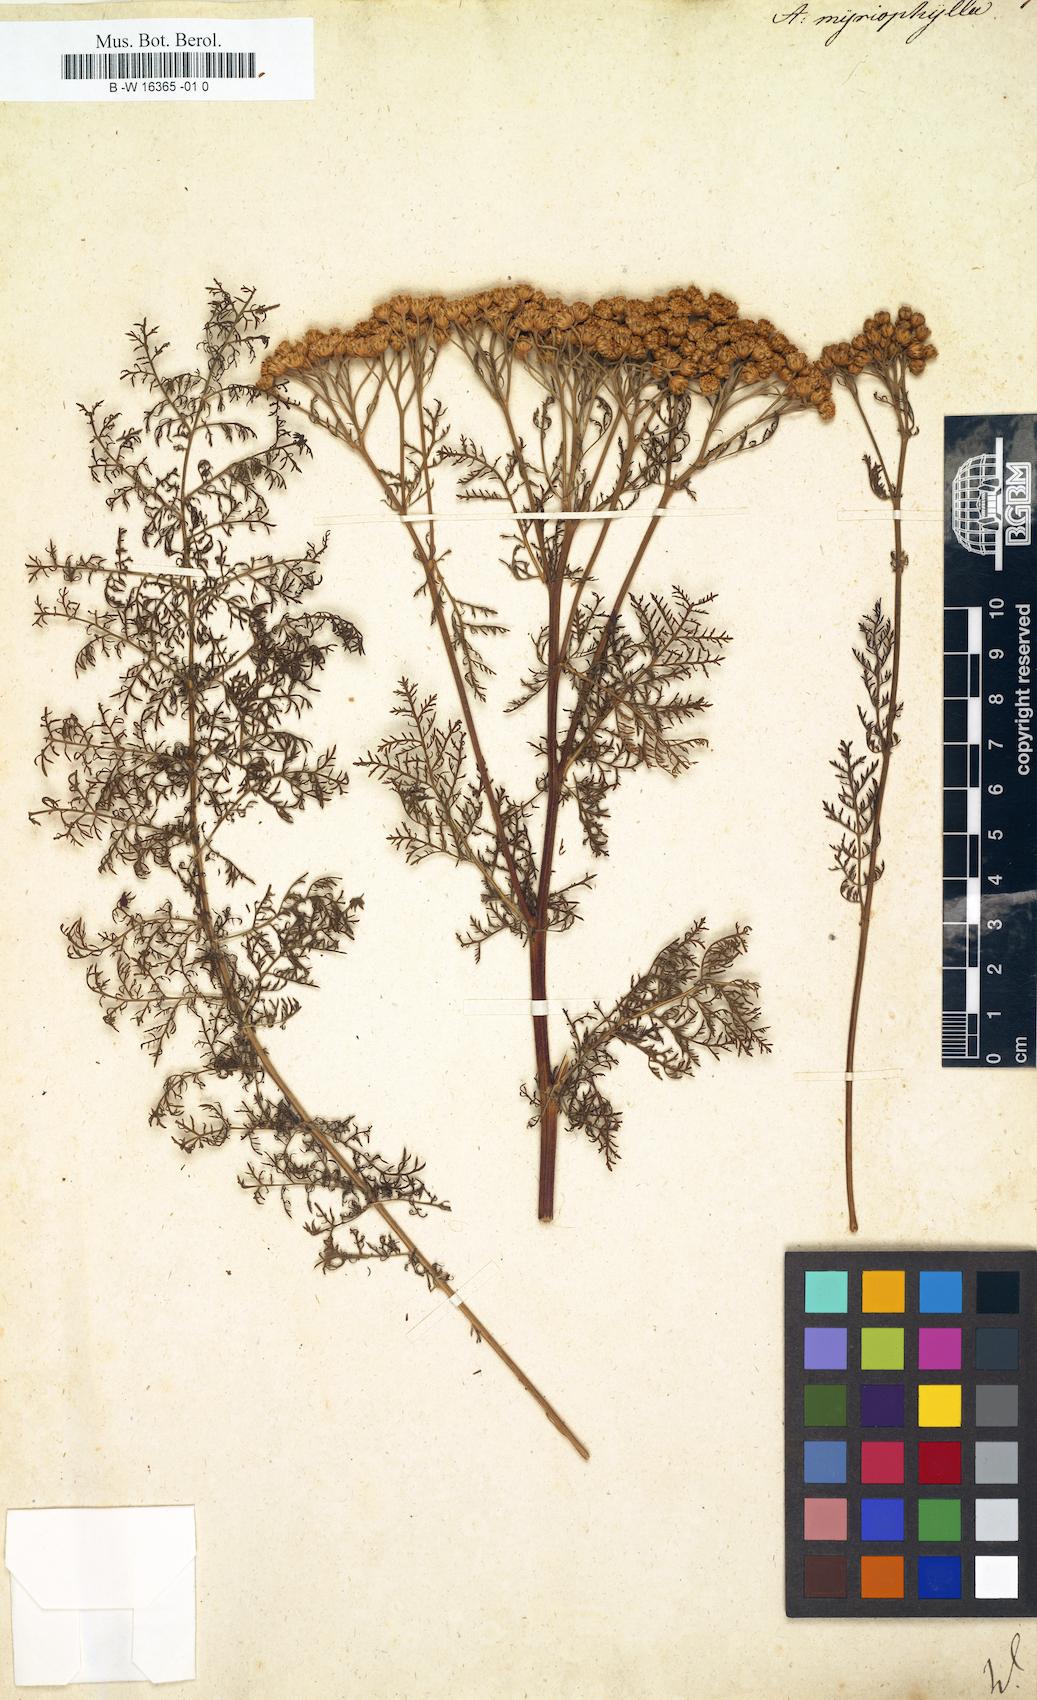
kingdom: Plantae
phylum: Tracheophyta
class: Magnoliopsida
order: Asterales
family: Asteraceae
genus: Tanacetum
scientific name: Tanacetum abrotanifolium
